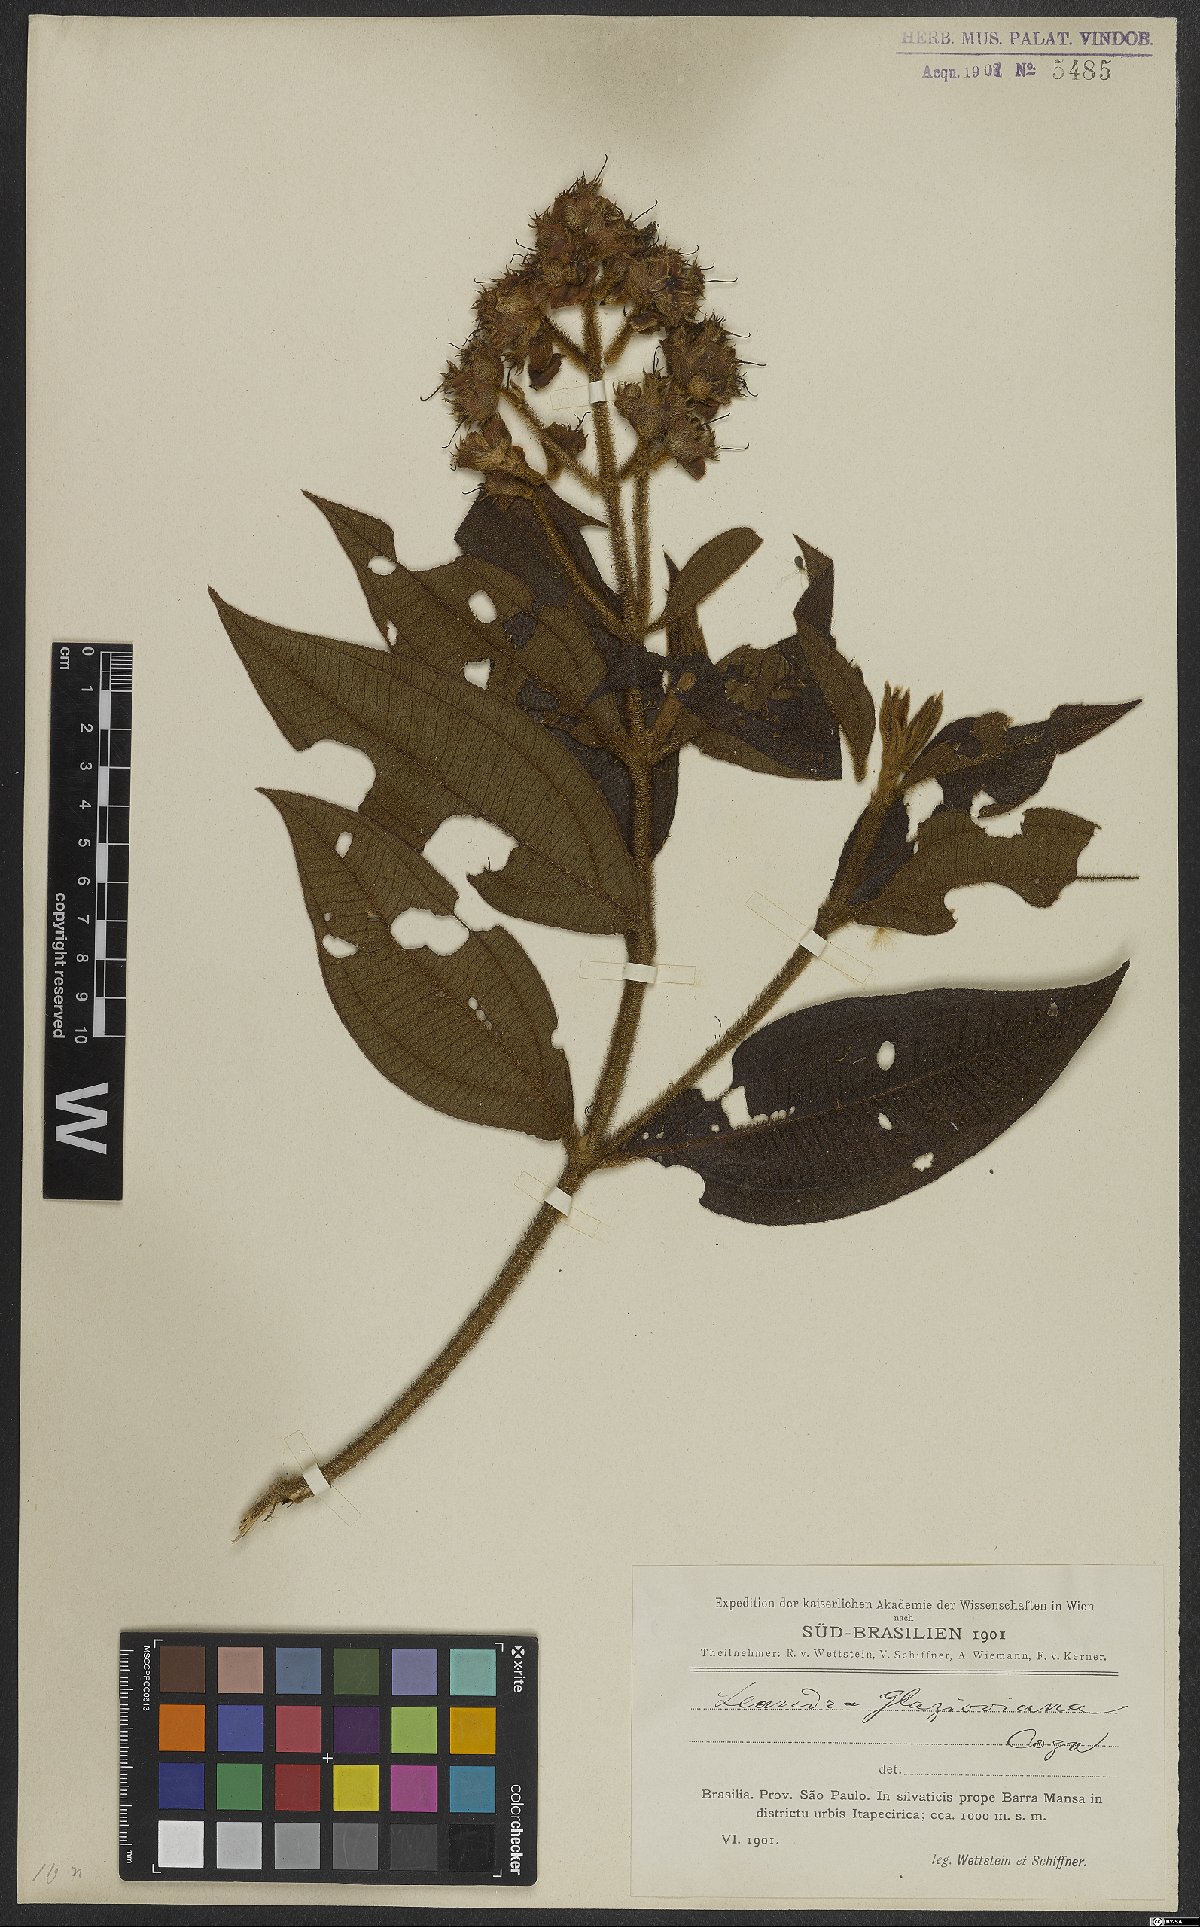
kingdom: Plantae
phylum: Tracheophyta
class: Magnoliopsida
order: Myrtales
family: Melastomataceae
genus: Miconia
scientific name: Miconia pubistyla
